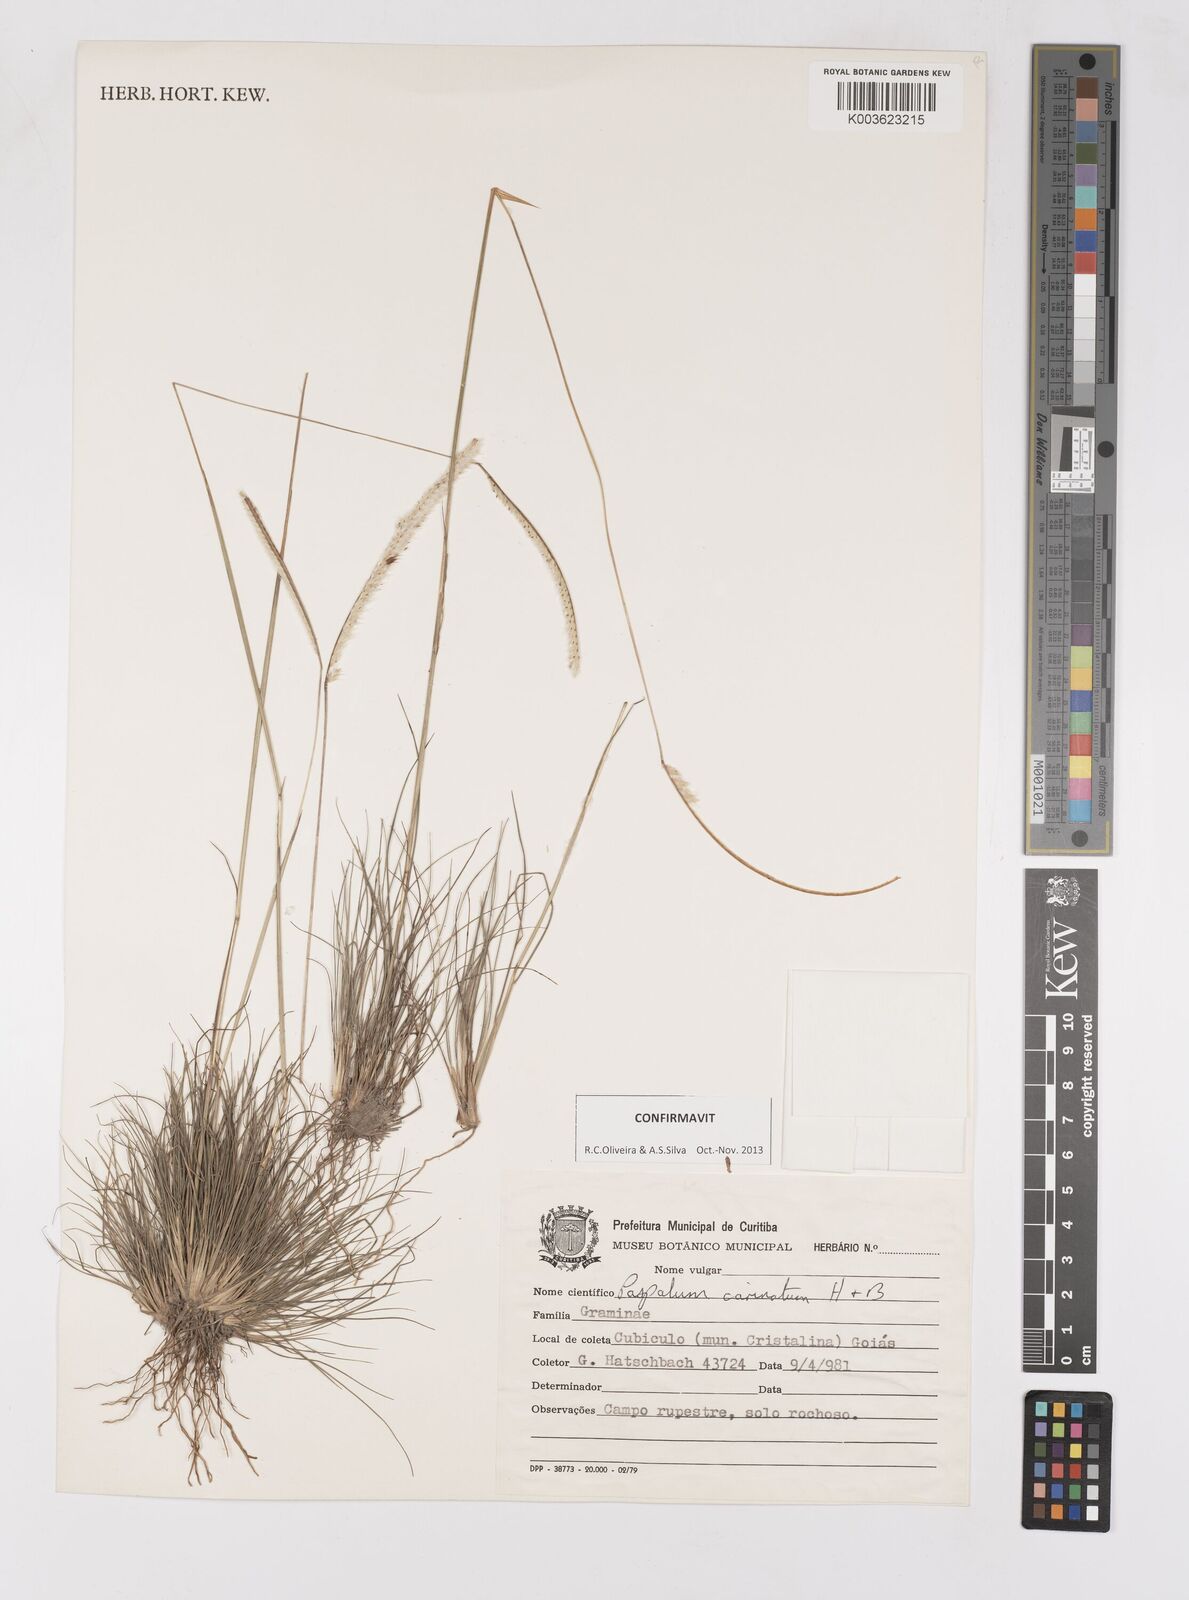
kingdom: Plantae
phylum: Tracheophyta
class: Liliopsida
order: Poales
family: Poaceae
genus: Paspalum
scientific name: Paspalum carinatum
